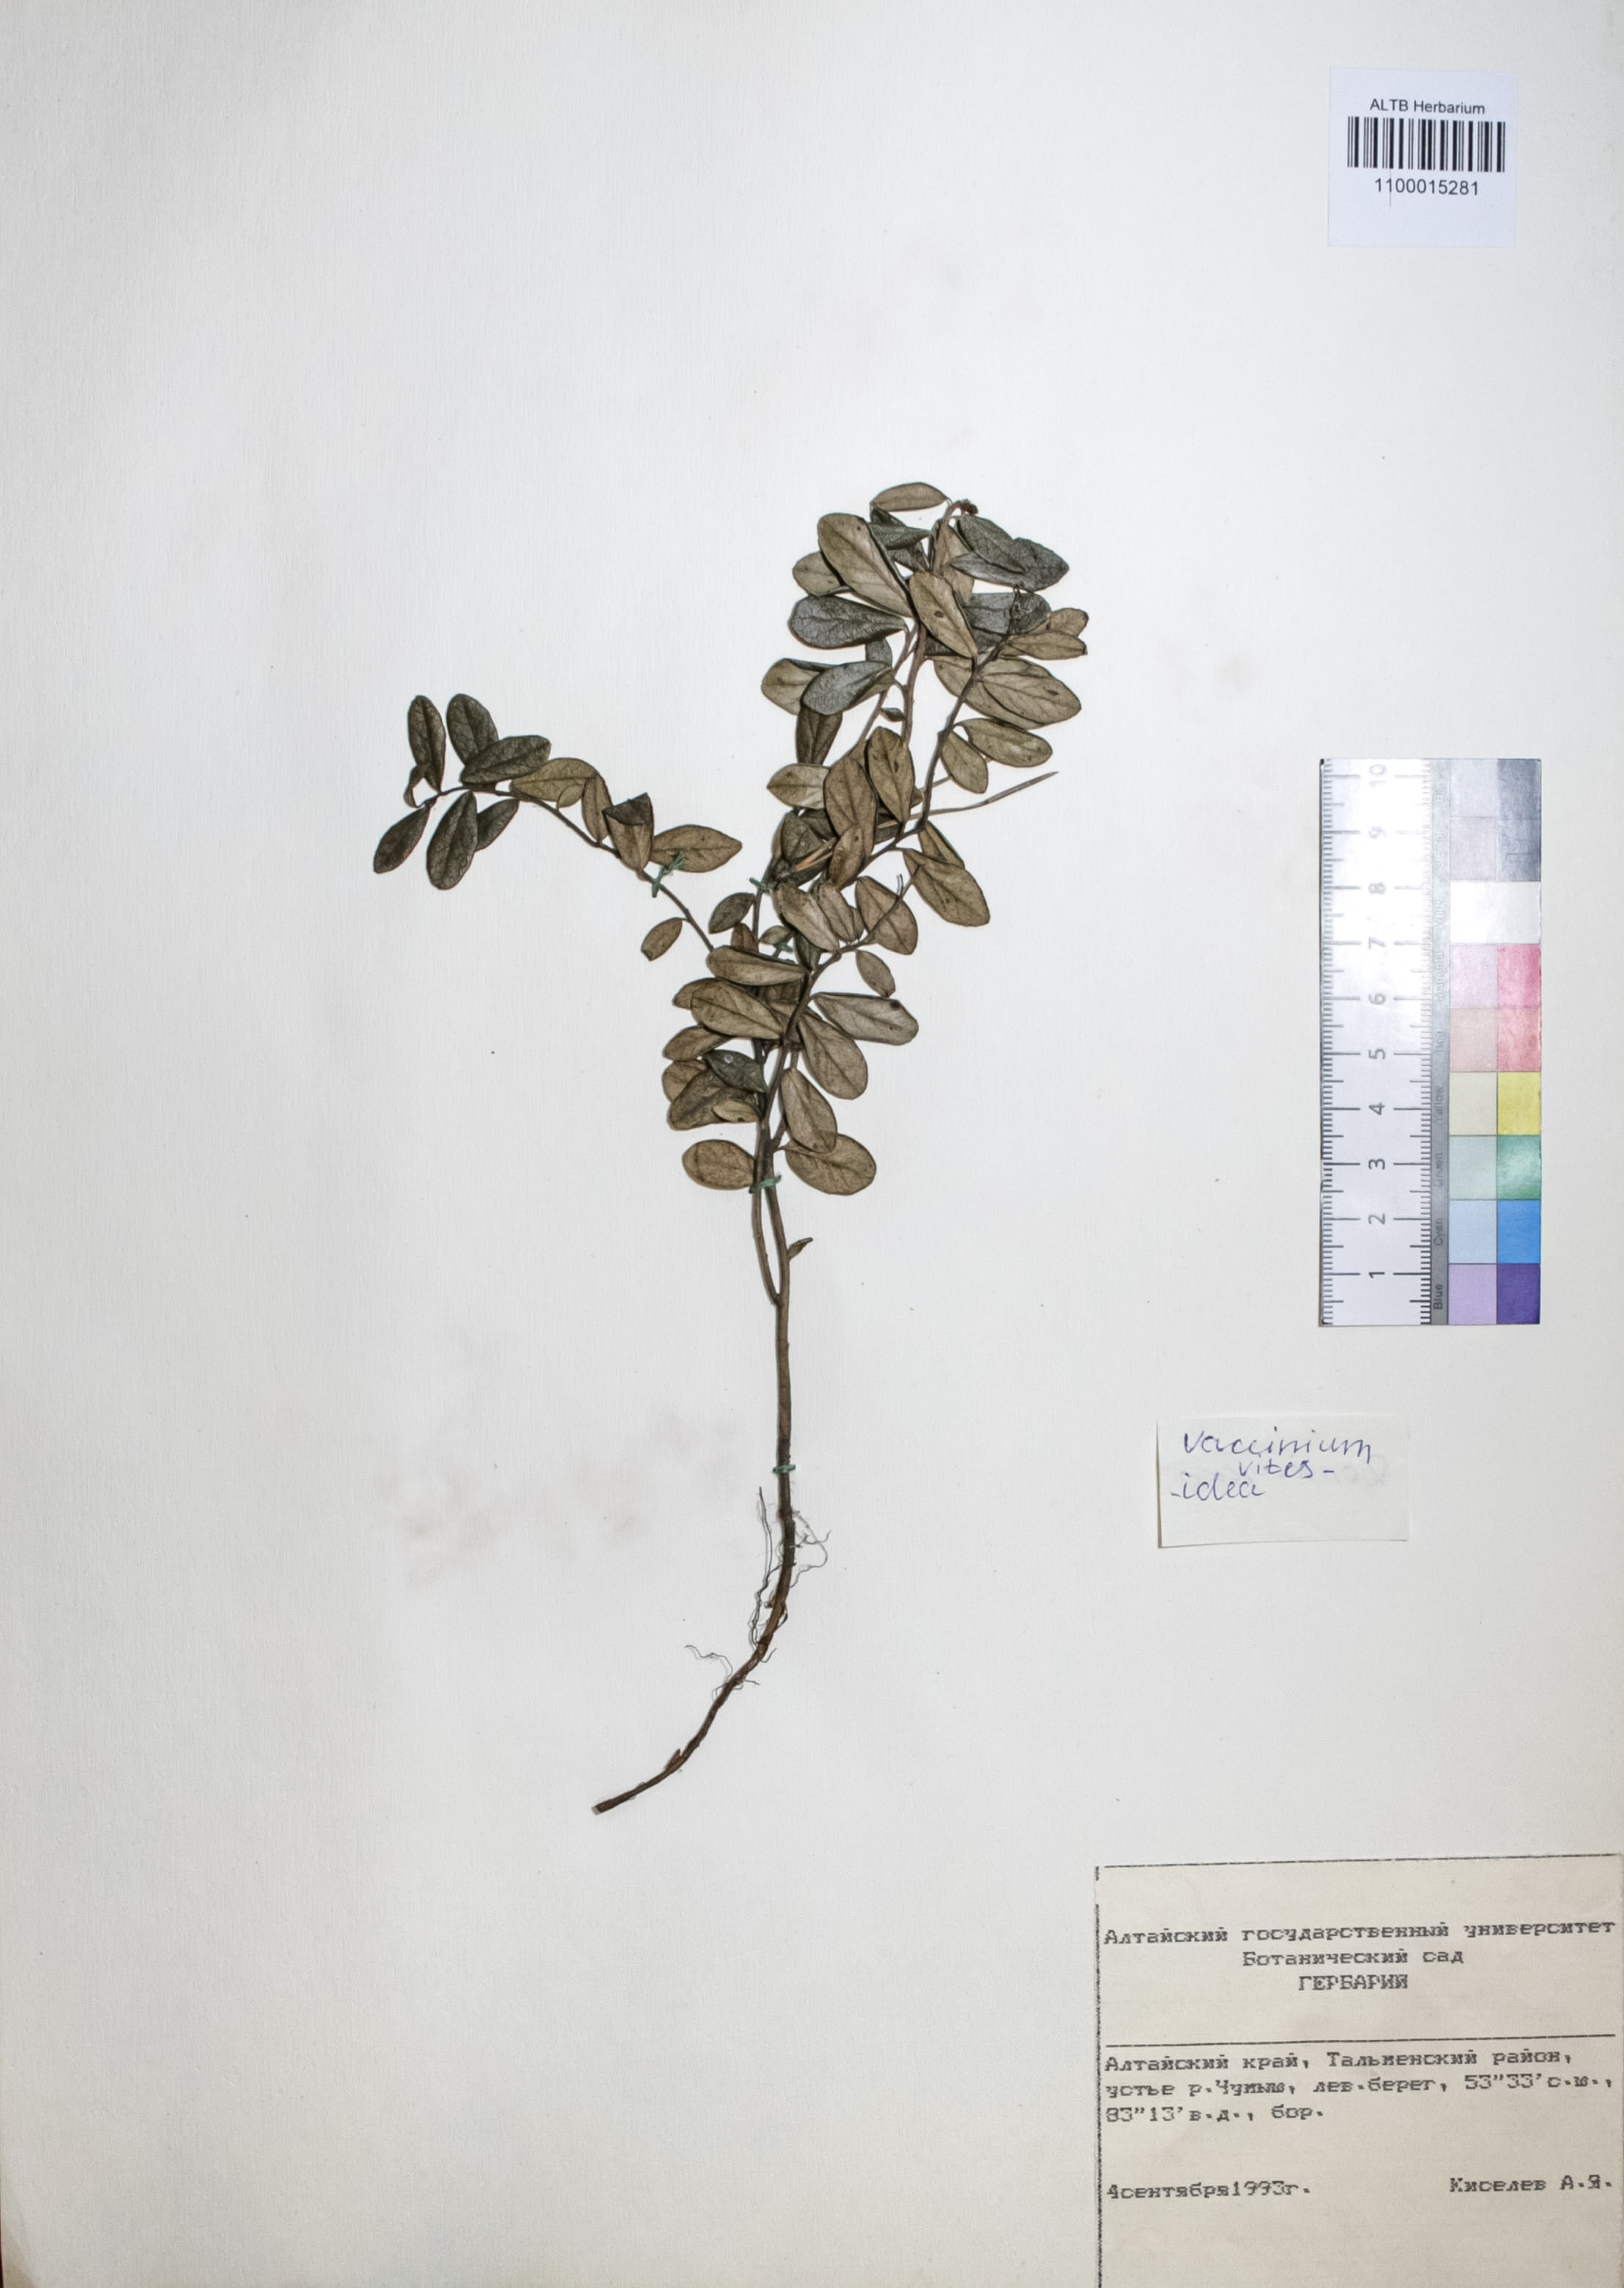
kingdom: Plantae
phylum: Tracheophyta
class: Magnoliopsida
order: Ericales
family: Ericaceae
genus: Vaccinium
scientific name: Vaccinium vitis-idaea
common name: Cowberry
